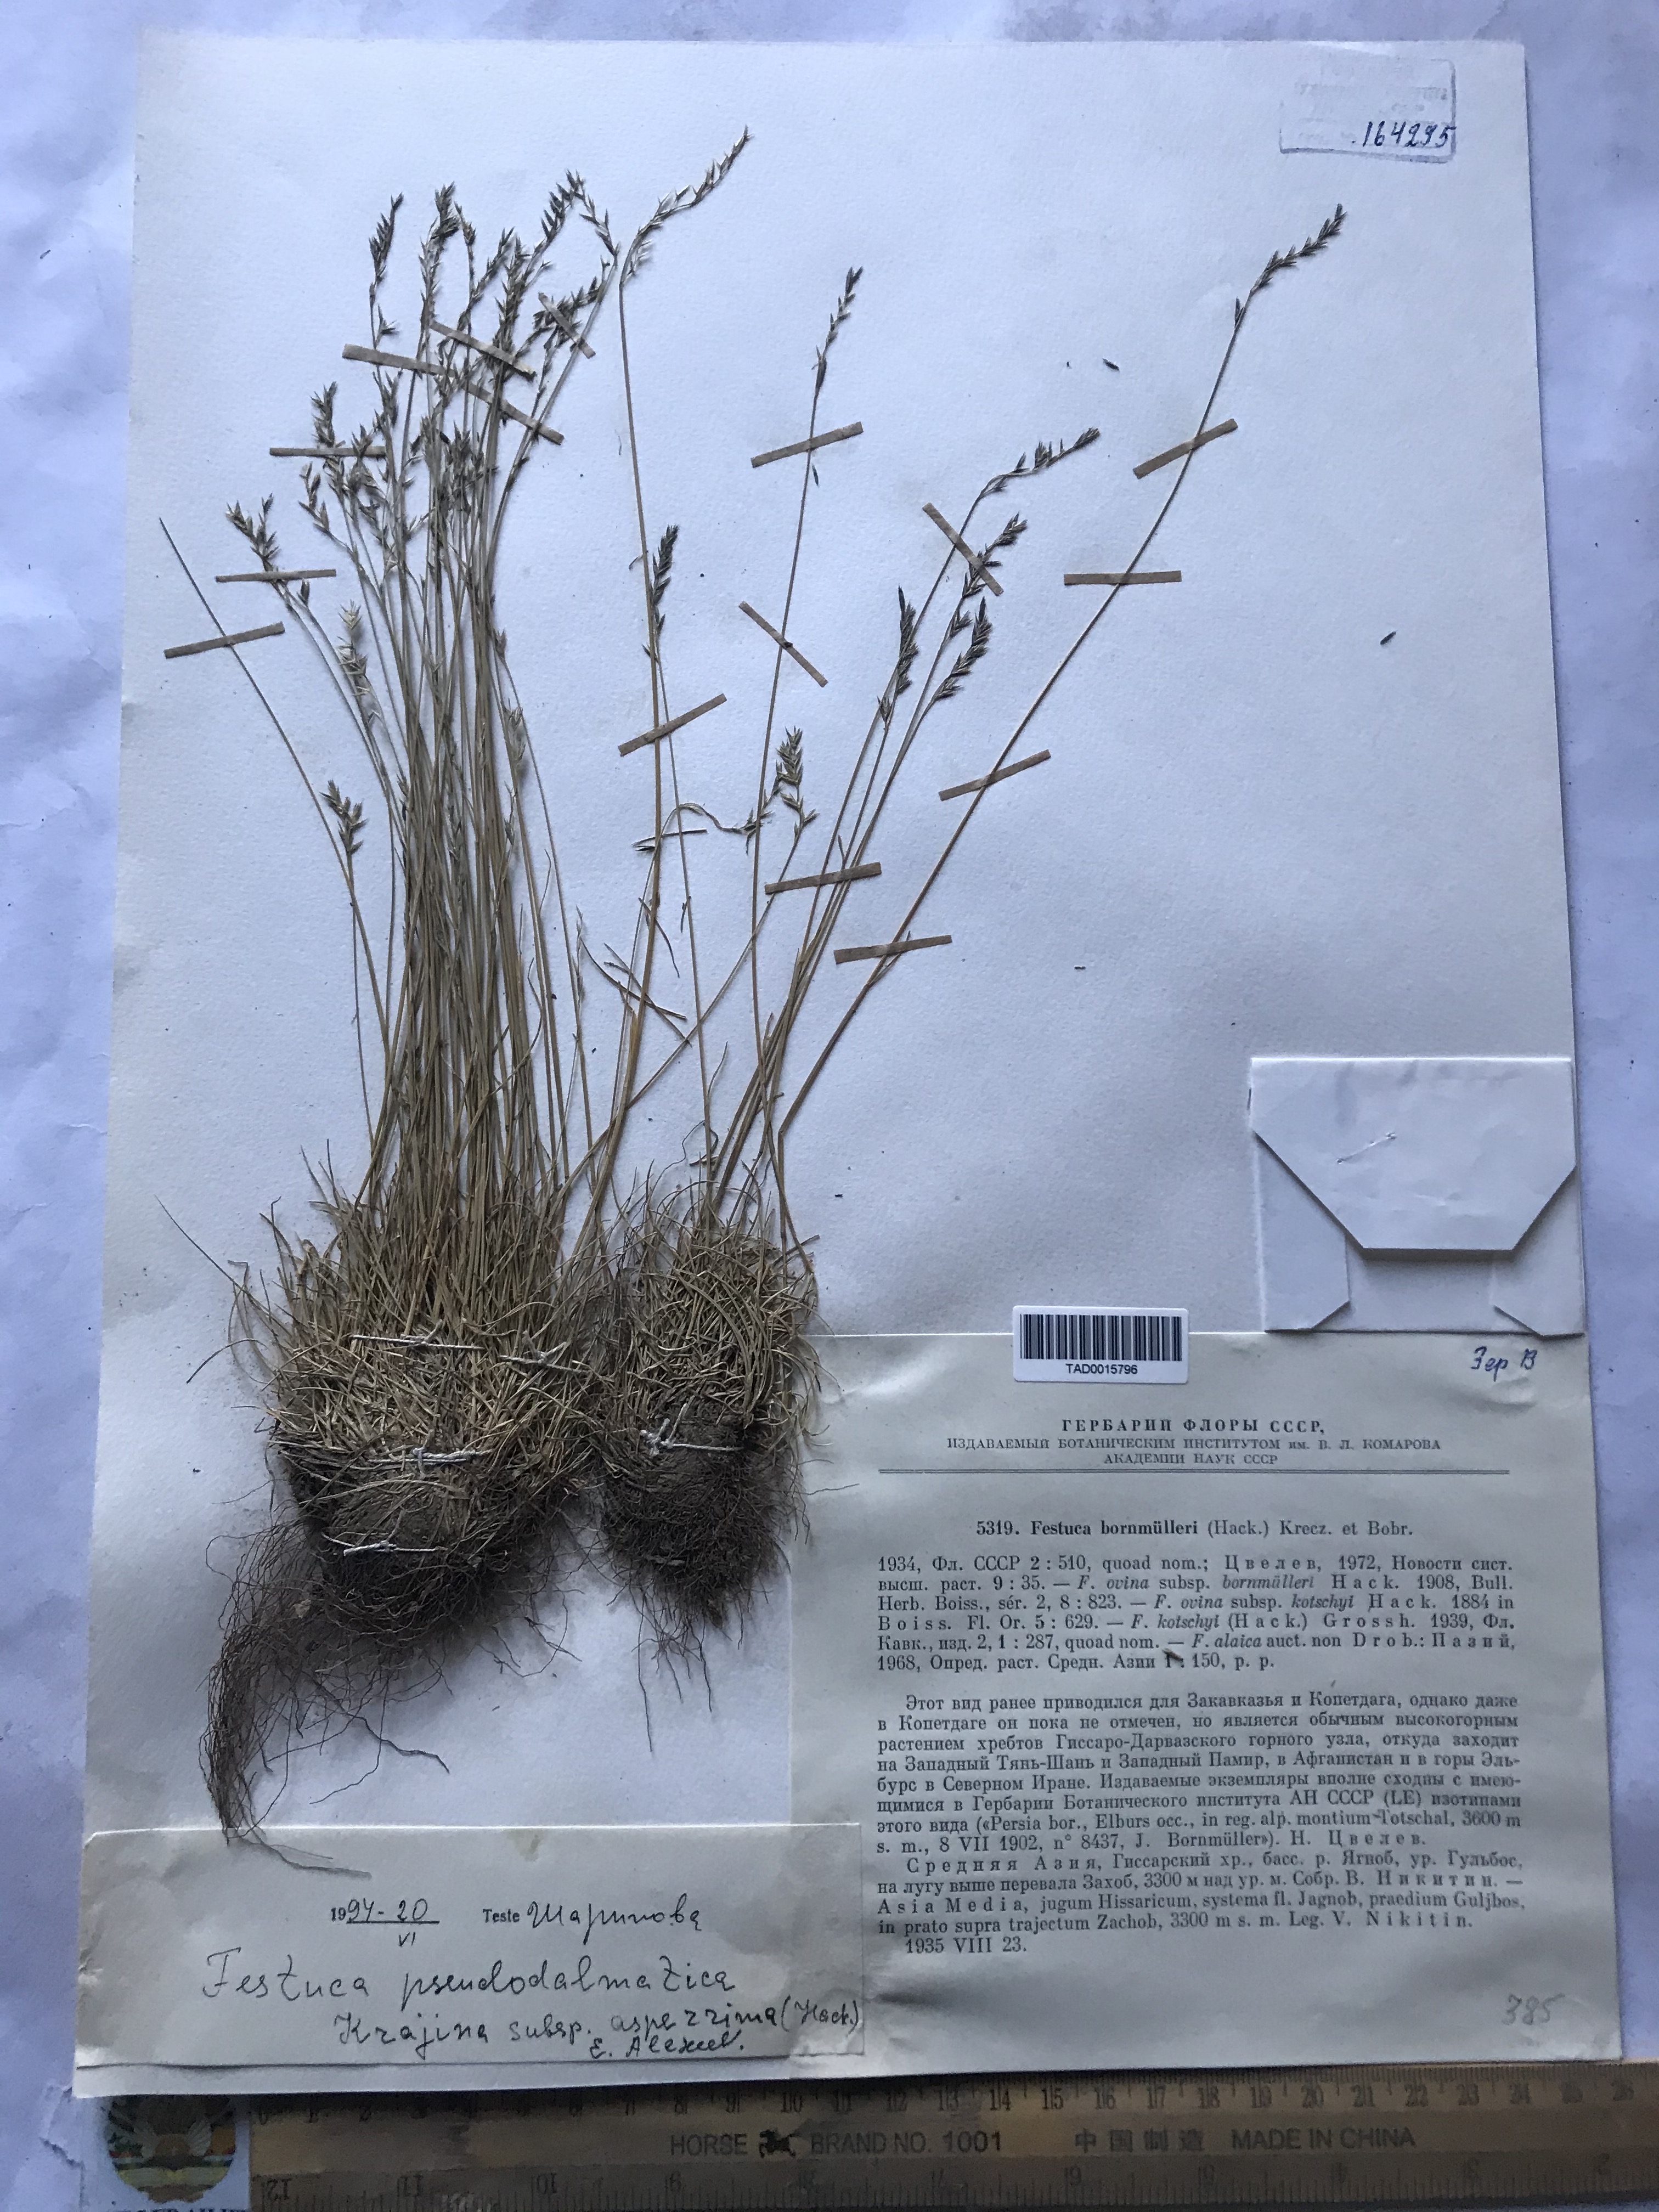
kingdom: Plantae
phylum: Tracheophyta
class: Liliopsida
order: Poales
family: Poaceae
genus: Festuca
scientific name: Festuca alaica
